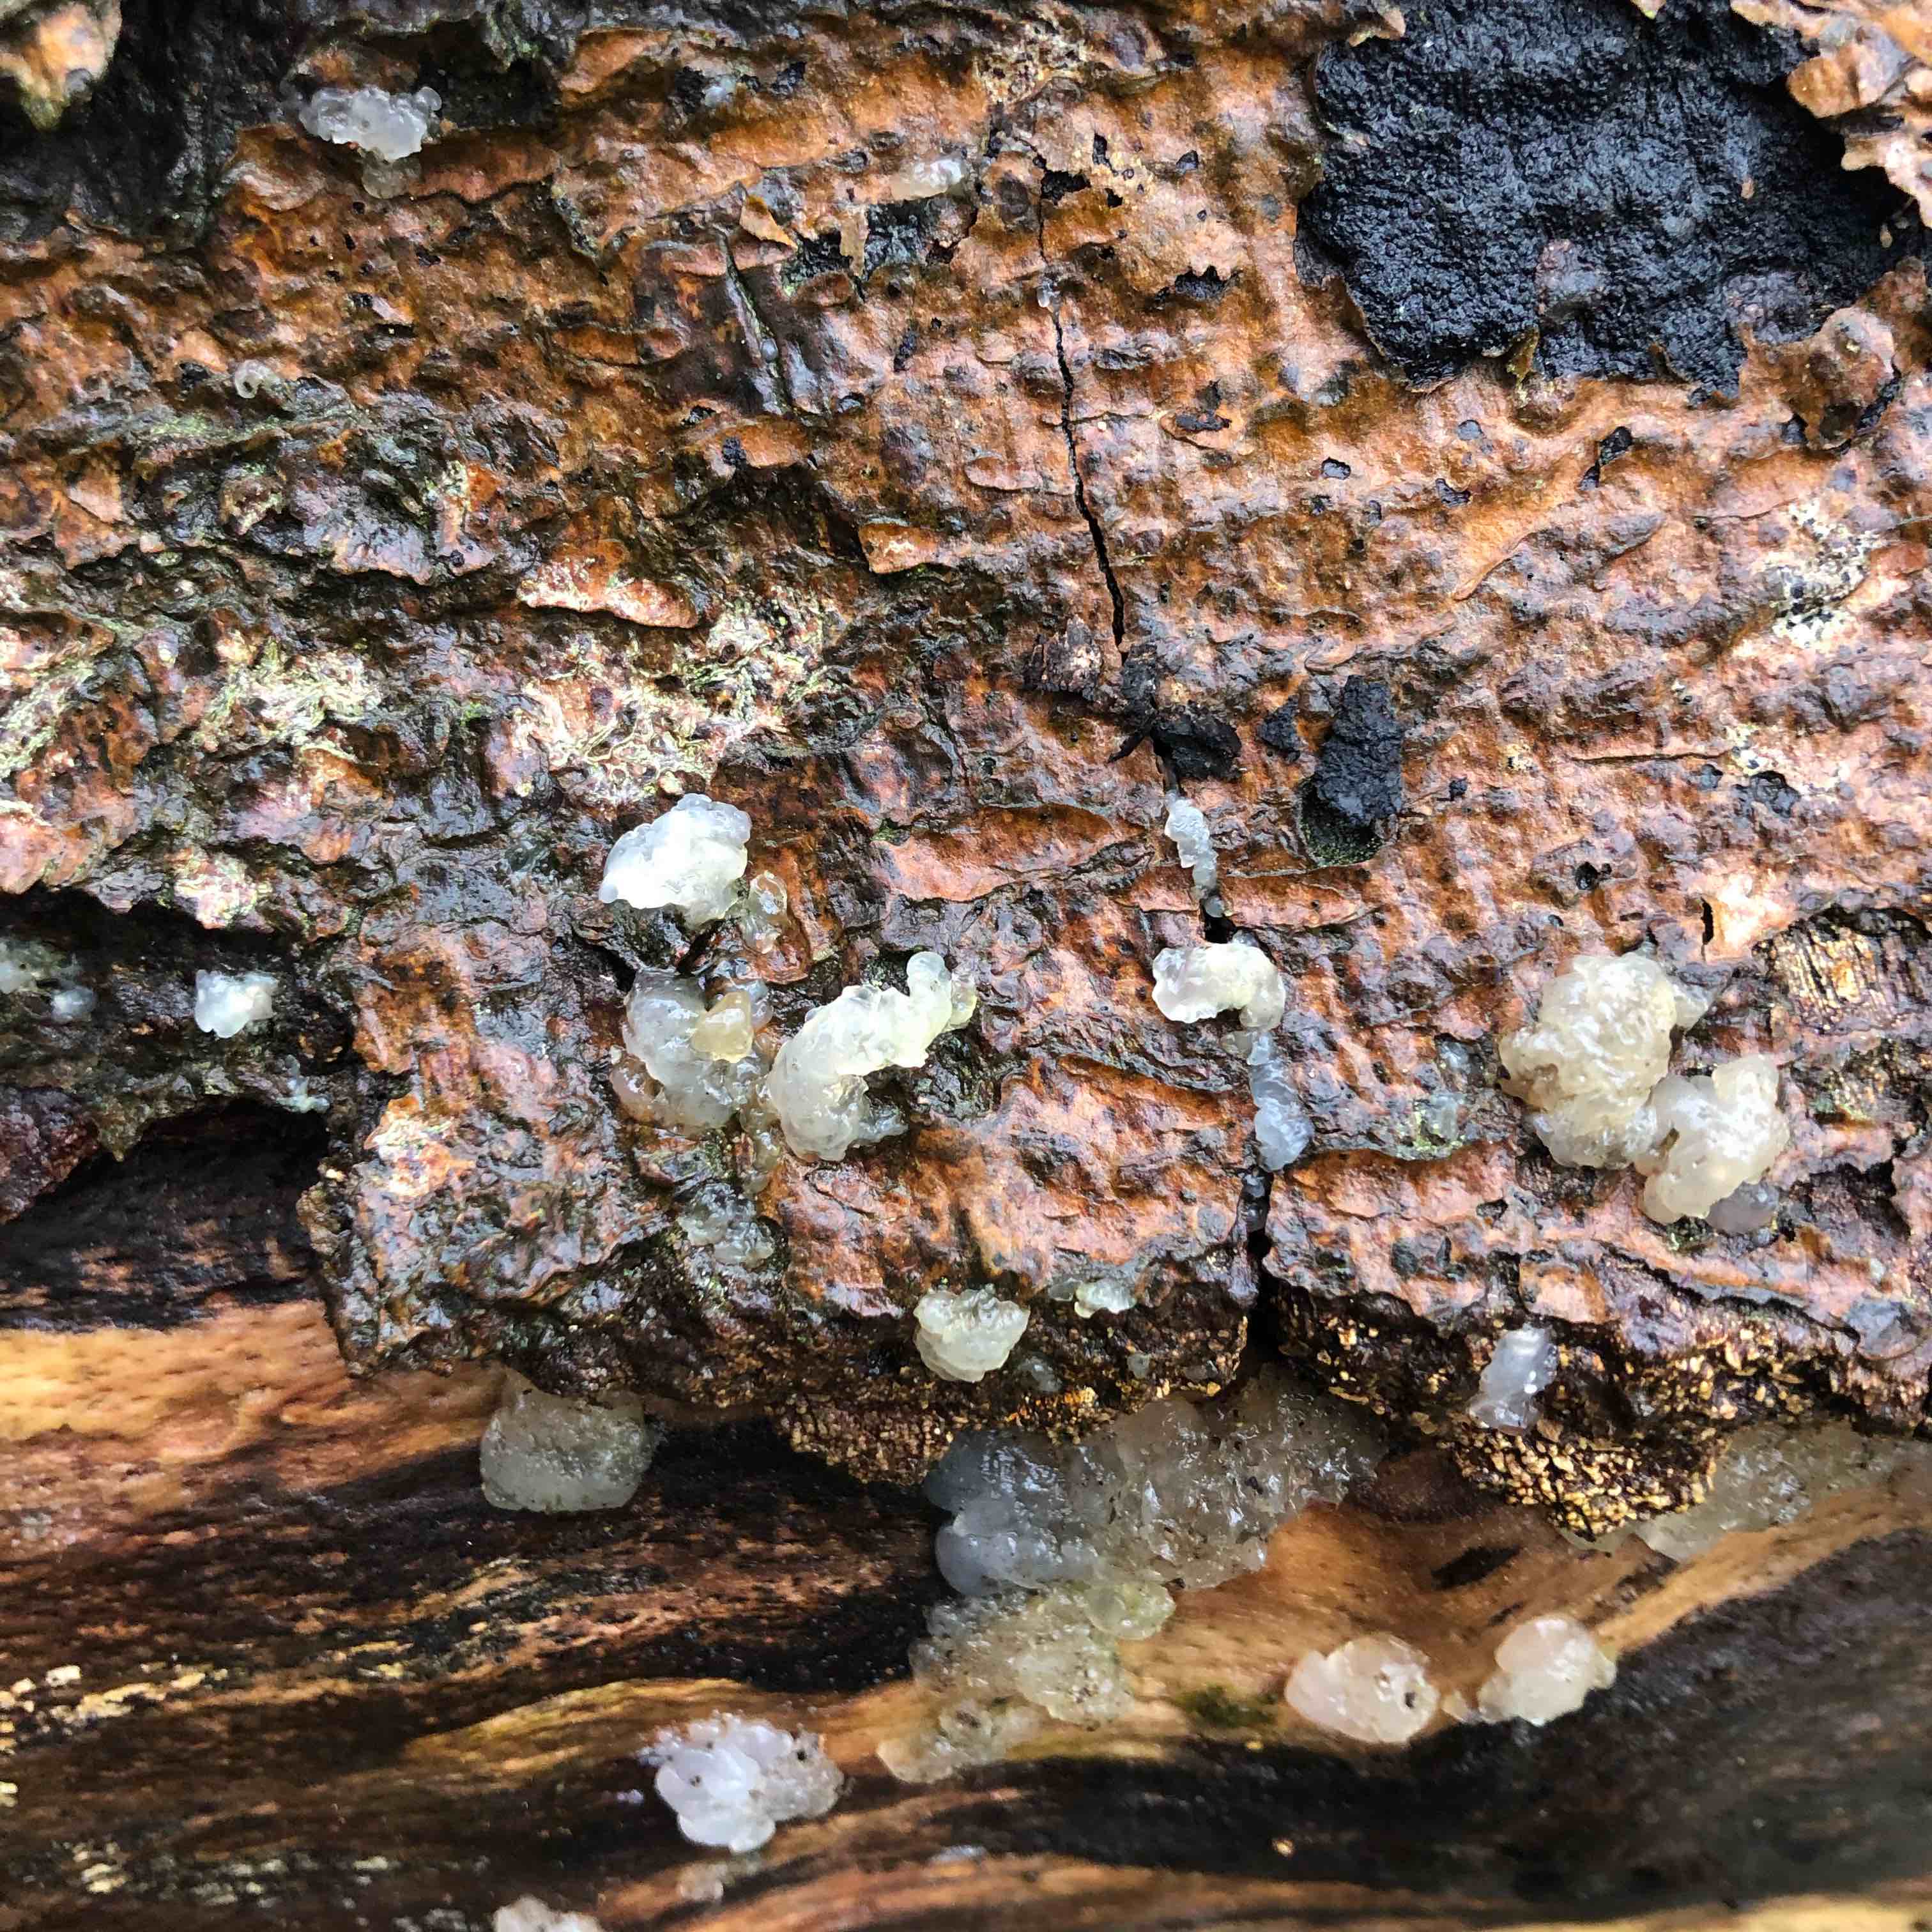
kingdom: Fungi
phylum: Basidiomycota
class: Agaricomycetes
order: Auriculariales
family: Hyaloriaceae
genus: Myxarium
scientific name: Myxarium nucleatum
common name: klar bævretop
